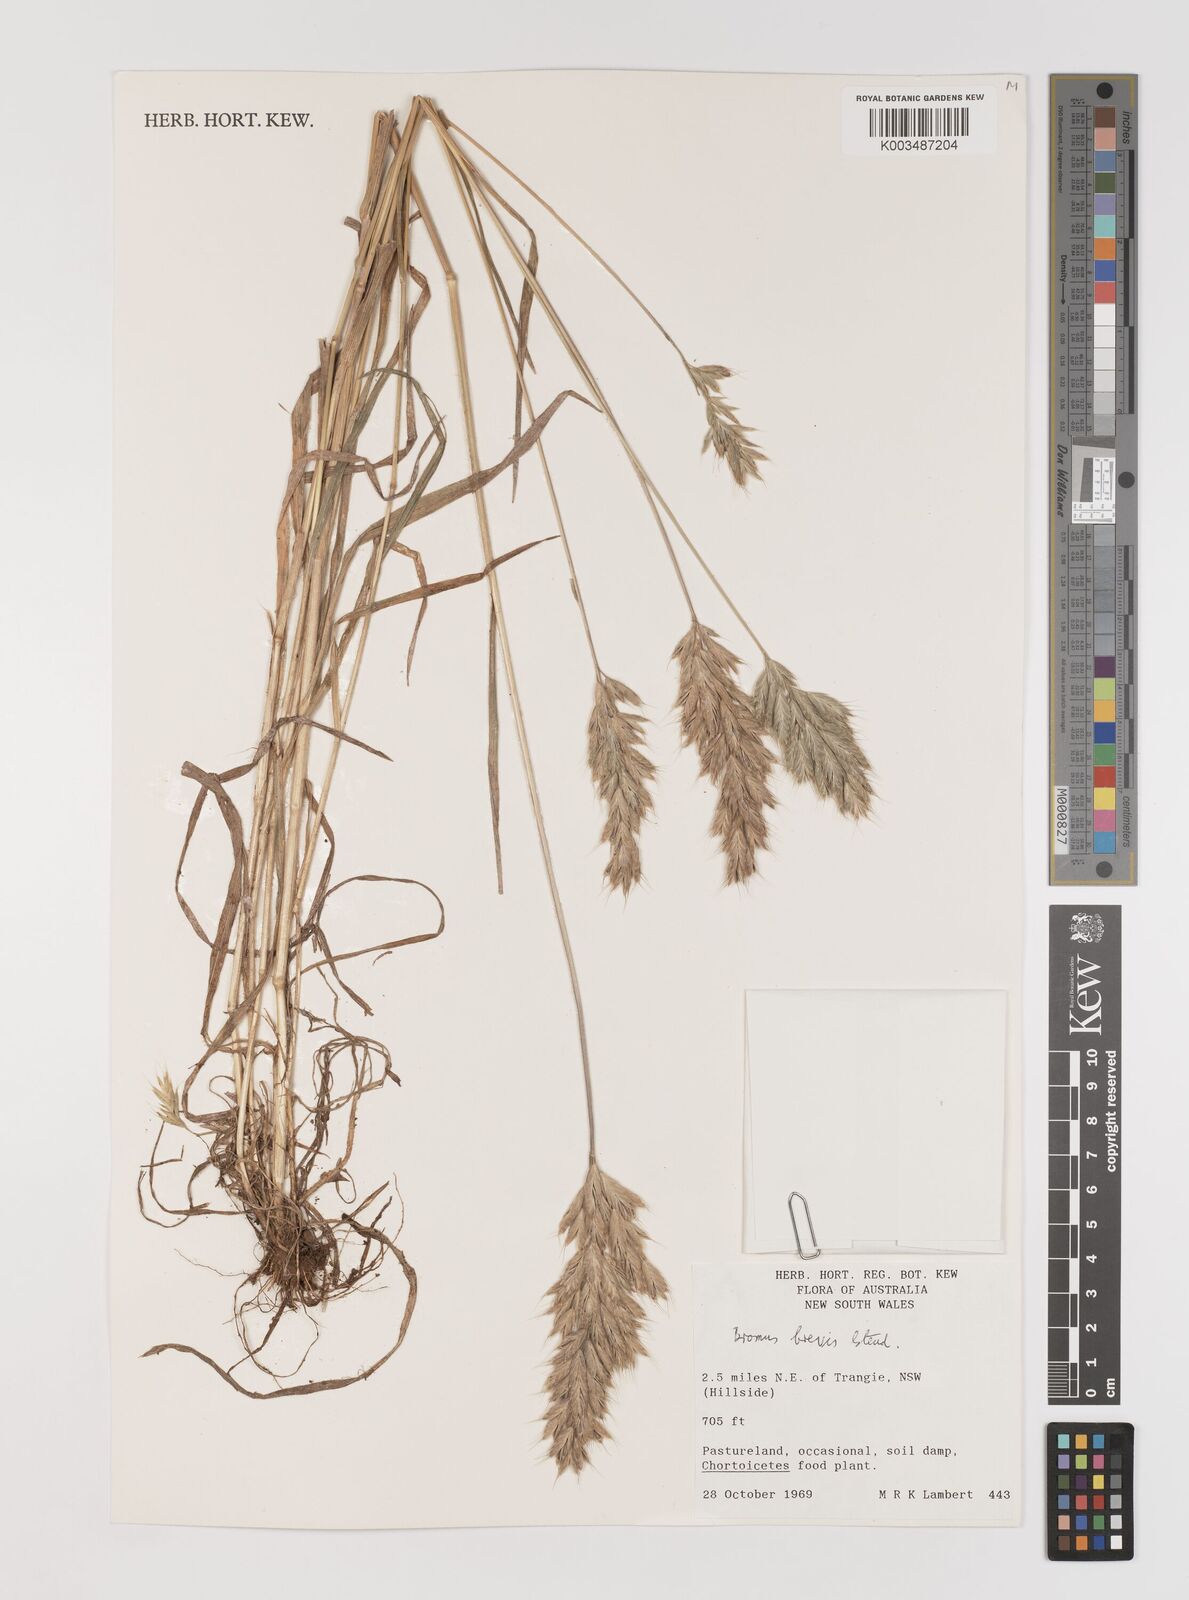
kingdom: Plantae
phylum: Tracheophyta
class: Liliopsida
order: Poales
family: Poaceae
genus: Bromus
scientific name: Bromus
